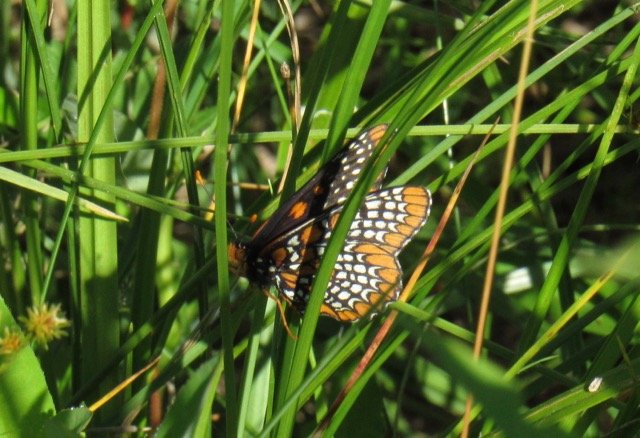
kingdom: Animalia
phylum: Arthropoda
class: Insecta
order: Lepidoptera
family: Nymphalidae
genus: Euphydryas
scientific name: Euphydryas phaeton
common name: Baltimore Checkerspot
